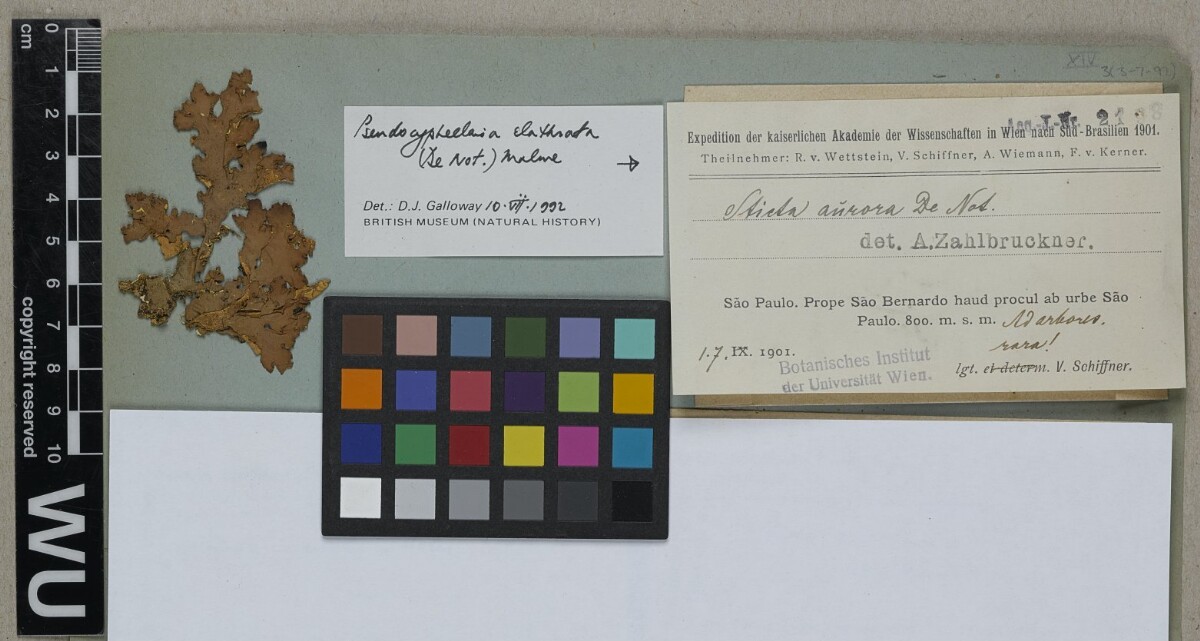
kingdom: Fungi
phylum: Ascomycota
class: Lecanoromycetes
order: Peltigerales
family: Lobariaceae
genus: Pseudocyphellaria
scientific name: Pseudocyphellaria clathrata
